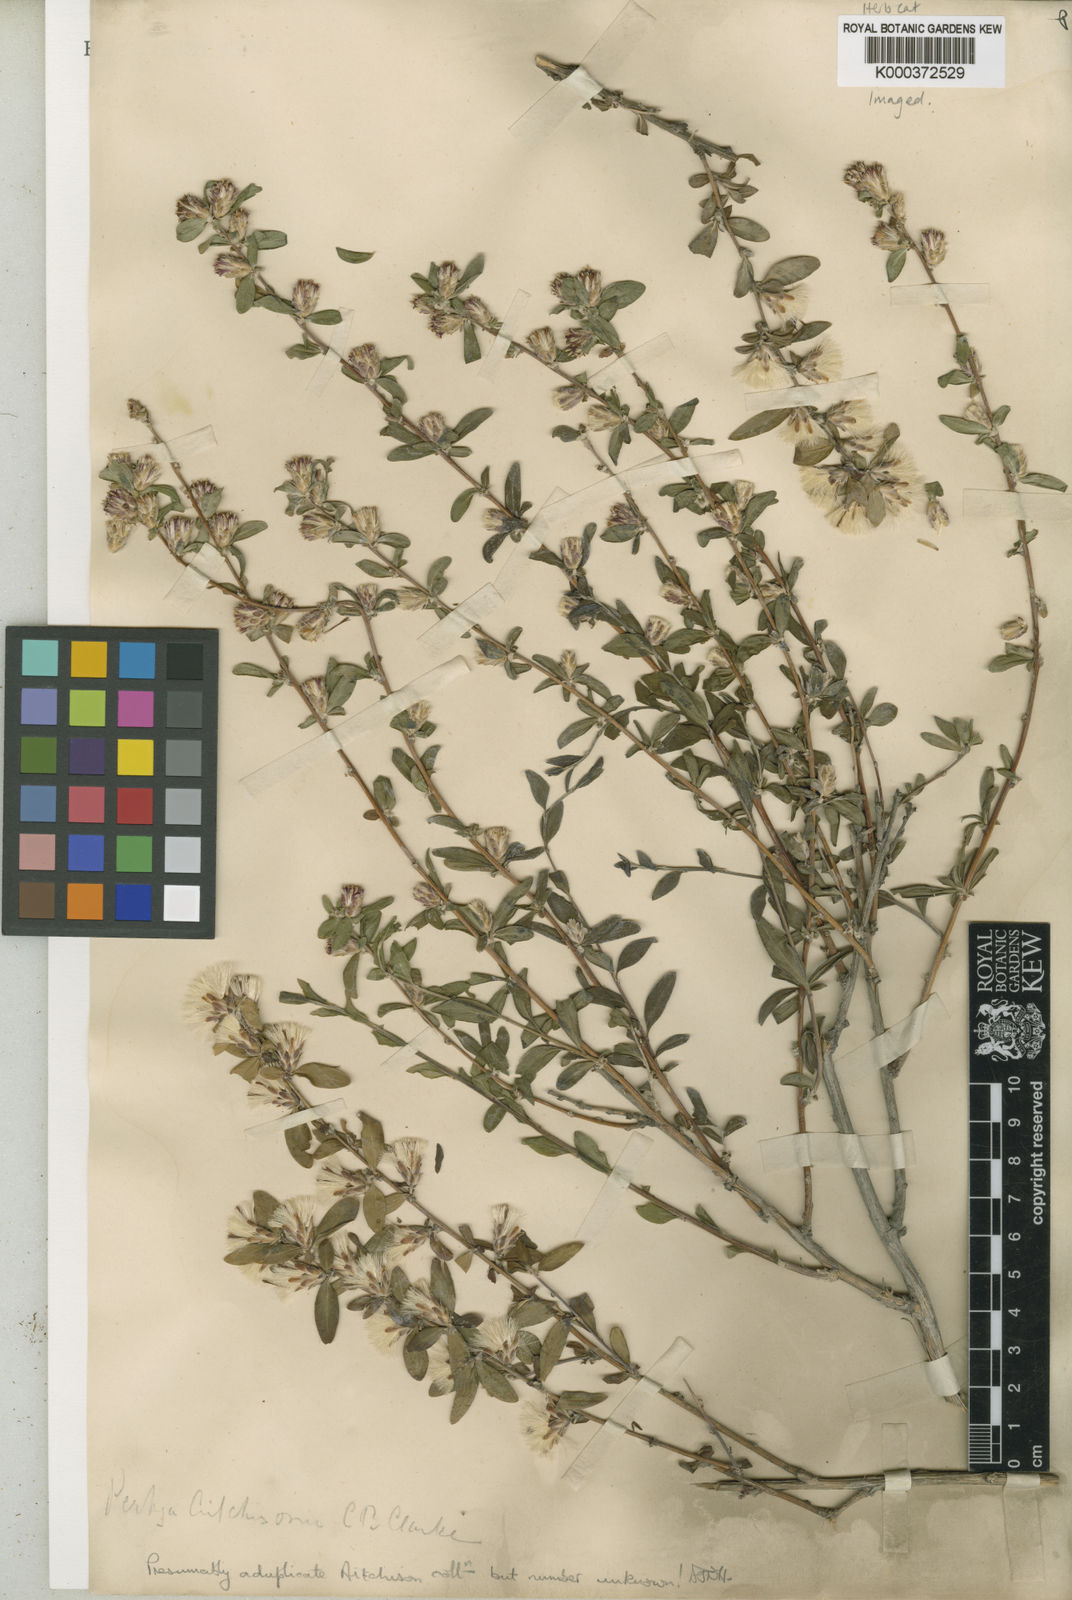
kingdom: Plantae
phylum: Tracheophyta
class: Magnoliopsida
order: Asterales
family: Asteraceae
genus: Pertya
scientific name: Pertya aitchisonii
